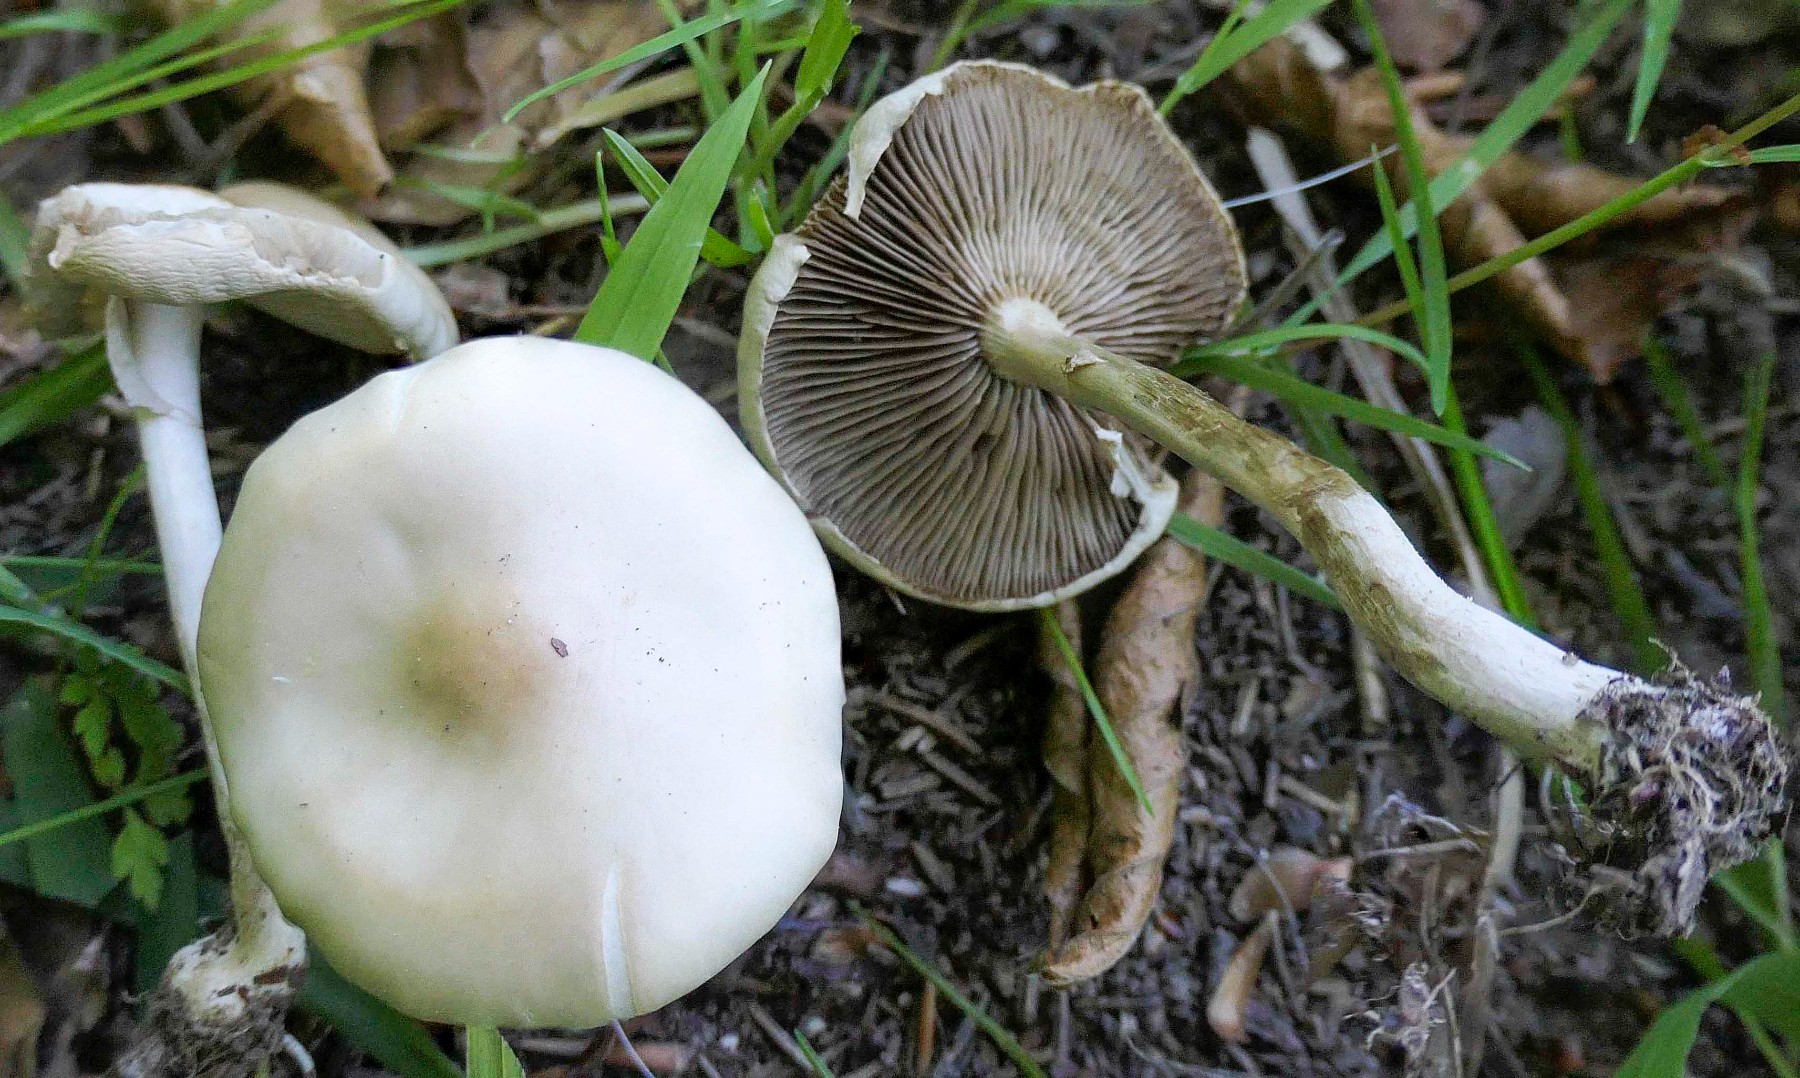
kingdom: Fungi
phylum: Basidiomycota
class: Agaricomycetes
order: Agaricales
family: Strophariaceae
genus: Agrocybe
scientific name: Agrocybe praecox
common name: tidlig agerhat
